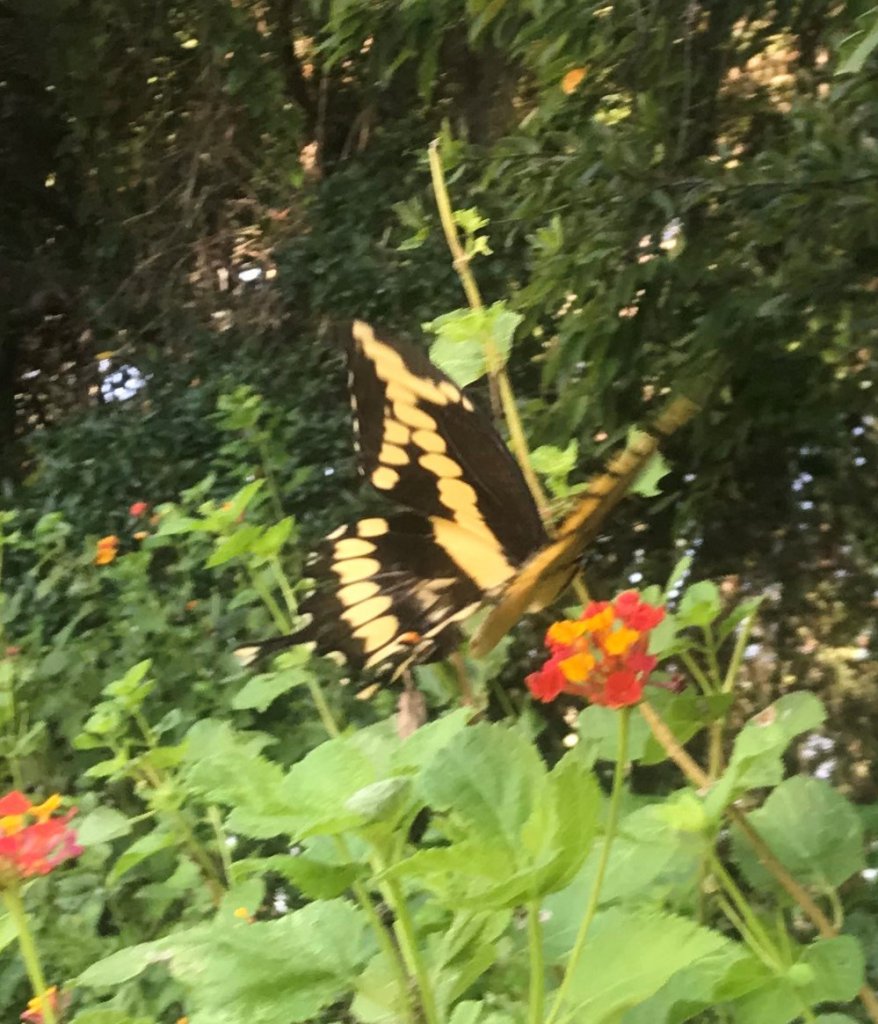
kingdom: Animalia
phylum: Arthropoda
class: Insecta
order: Lepidoptera
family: Papilionidae
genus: Papilio
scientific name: Papilio cresphontes
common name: Eastern Giant Swallowtail
